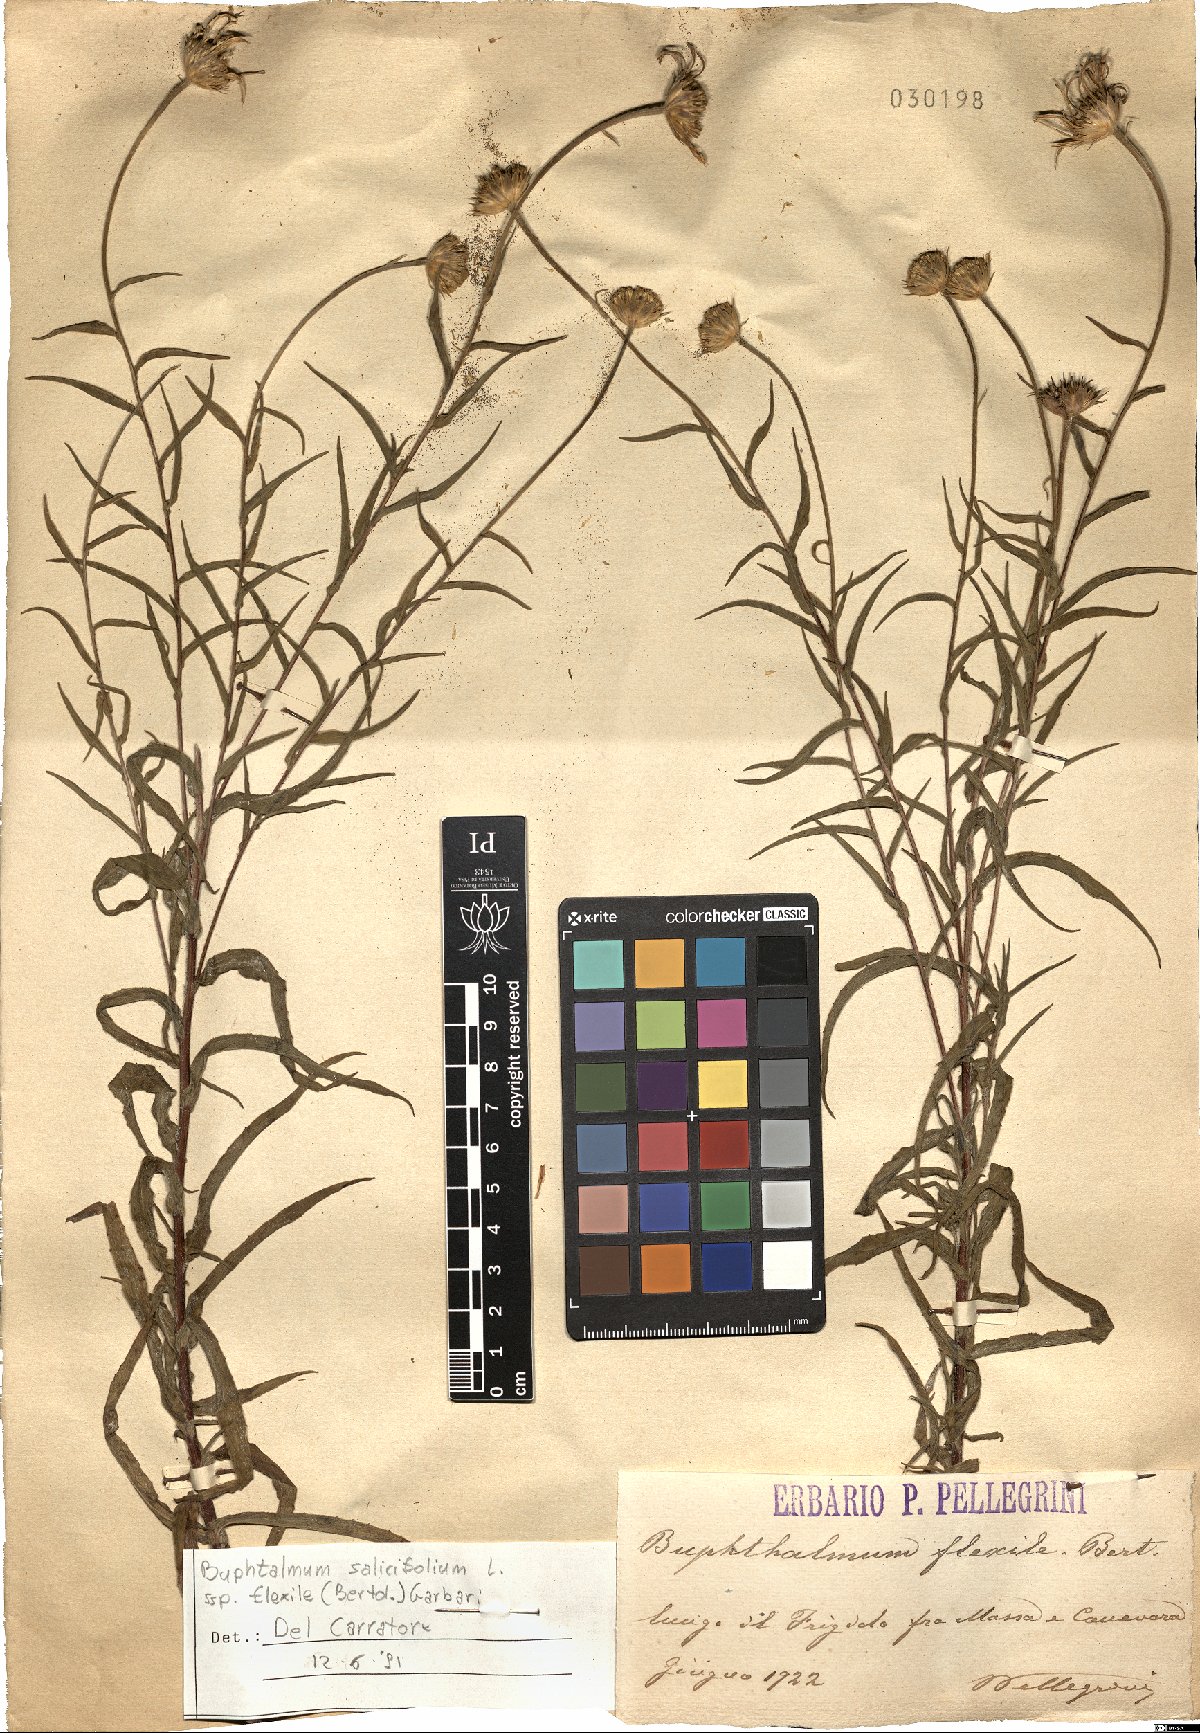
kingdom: Plantae
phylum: Tracheophyta
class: Magnoliopsida
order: Asterales
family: Asteraceae
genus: Buphthalmum
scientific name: Buphthalmum salicifolium
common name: Willow-leaved yellow-oxeye
